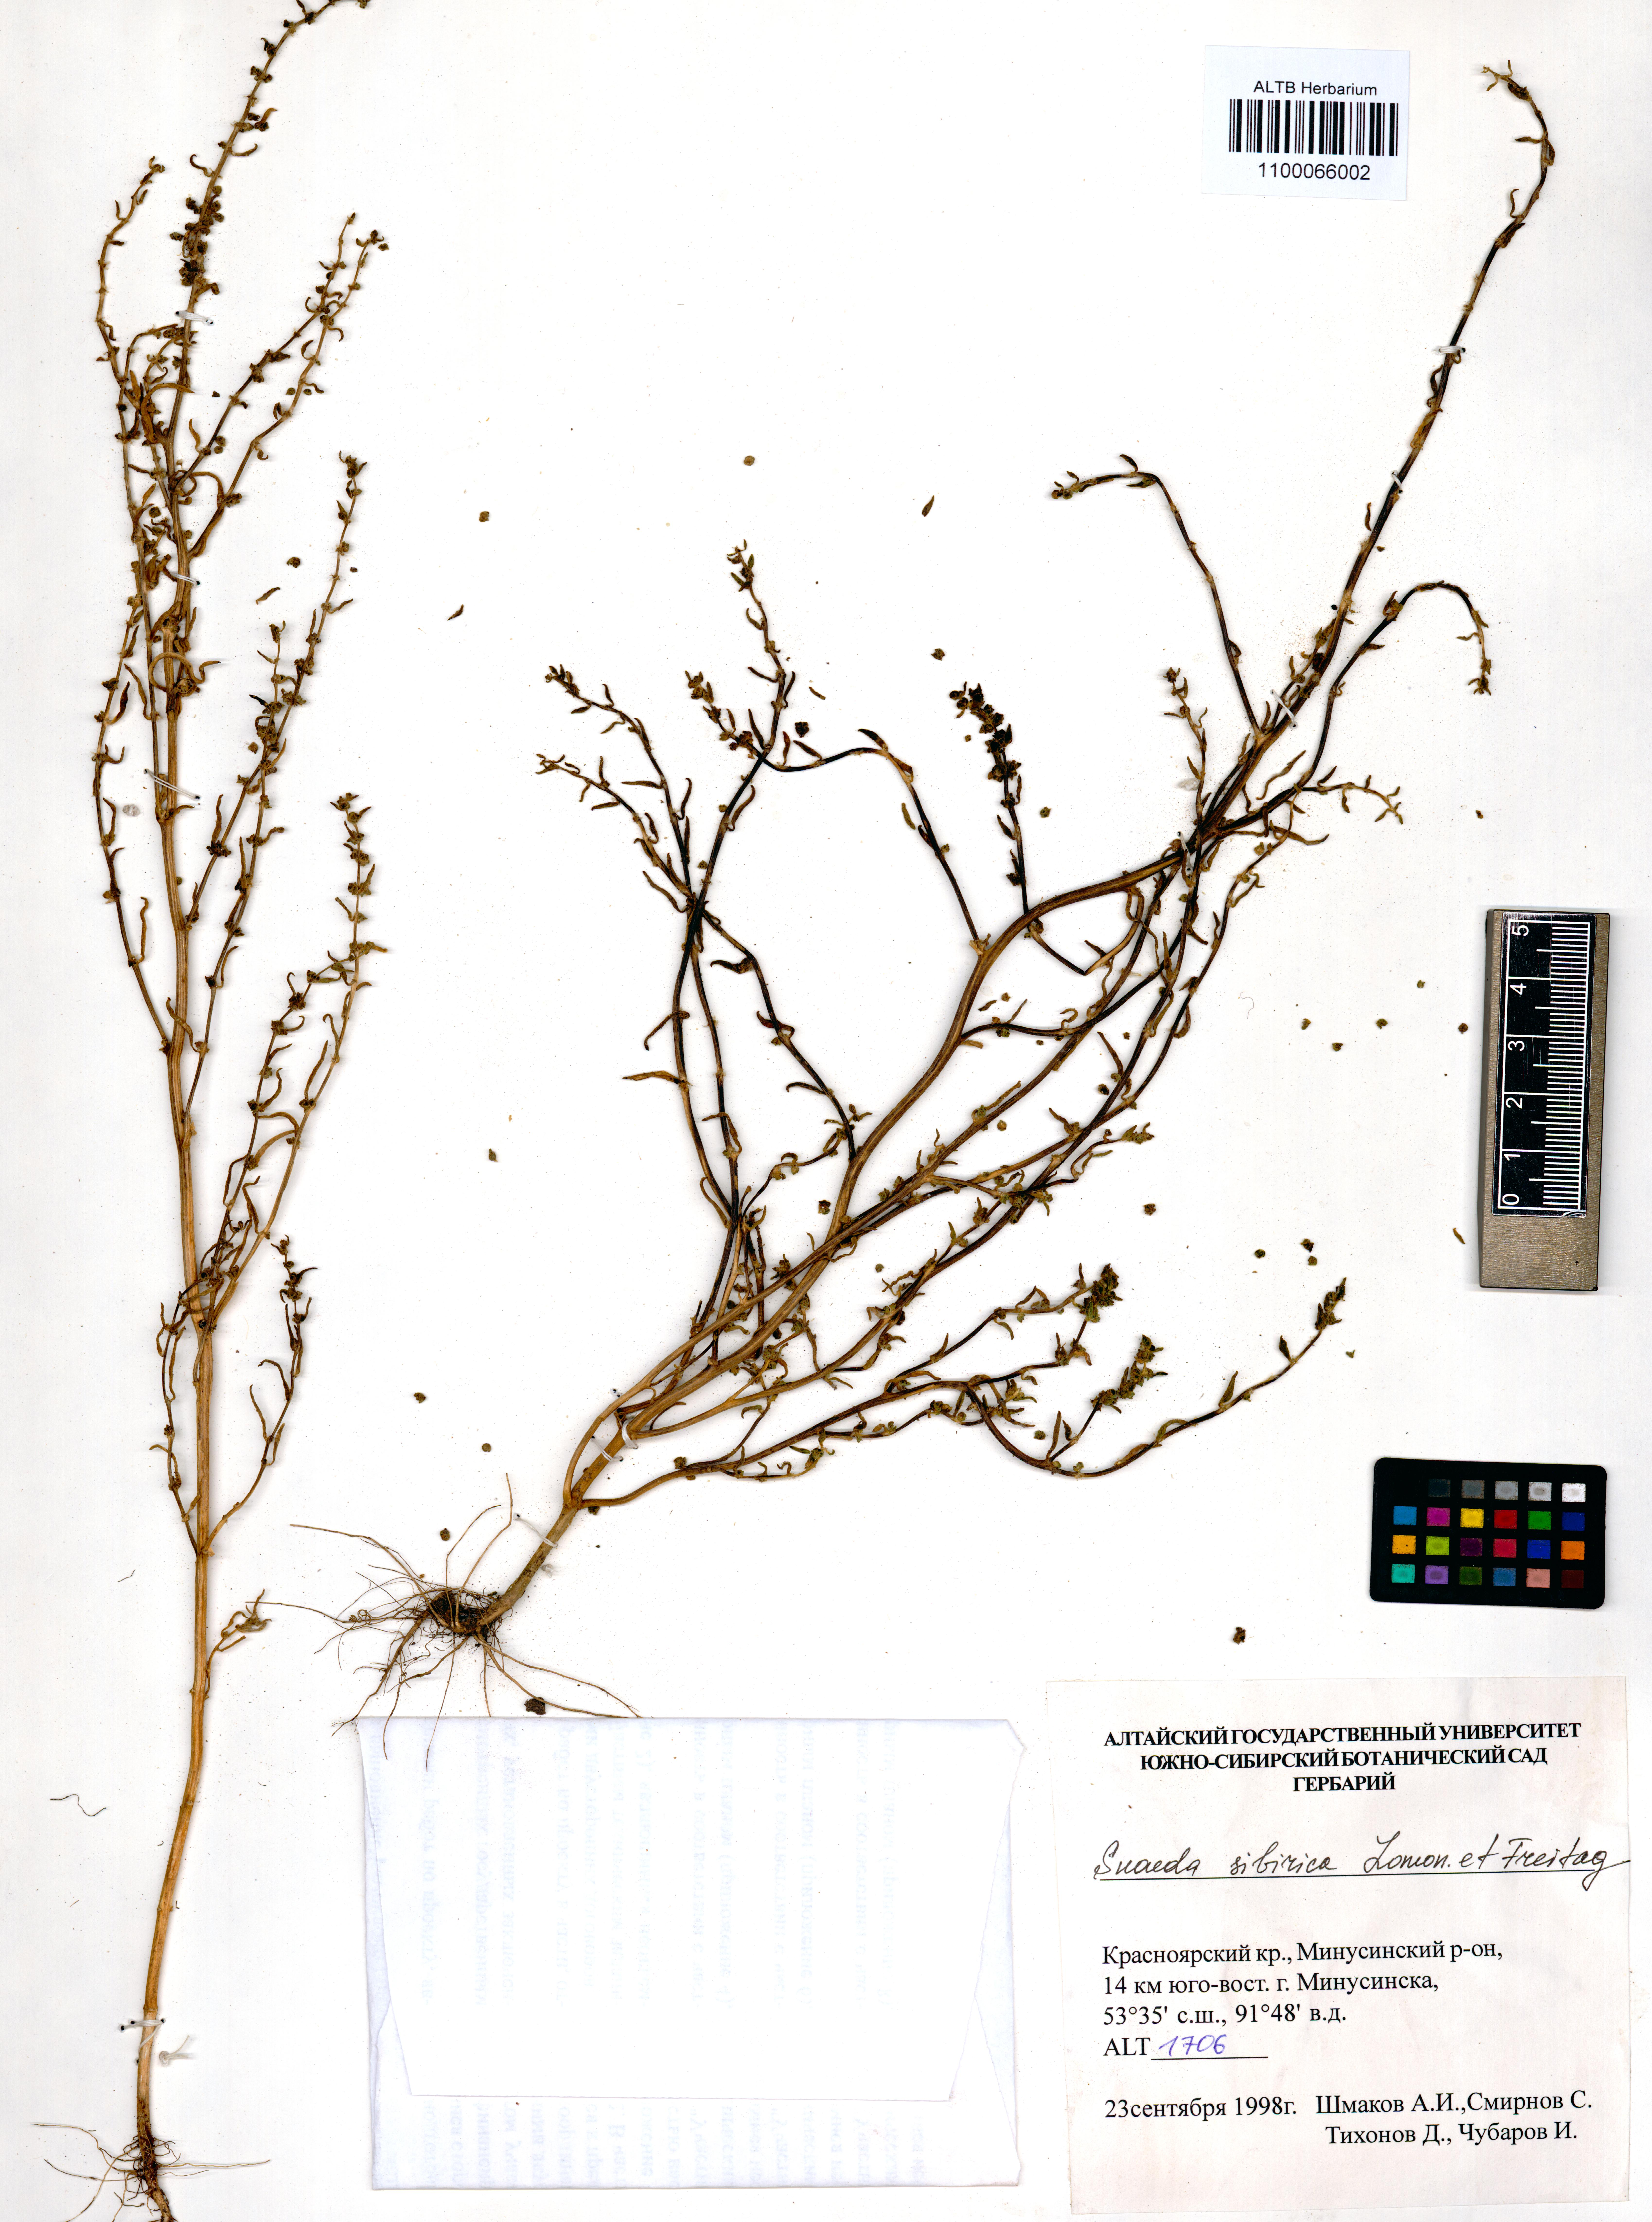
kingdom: Plantae
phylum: Tracheophyta
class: Magnoliopsida
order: Caryophyllales
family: Amaranthaceae
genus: Suaeda
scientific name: Suaeda sibirica
